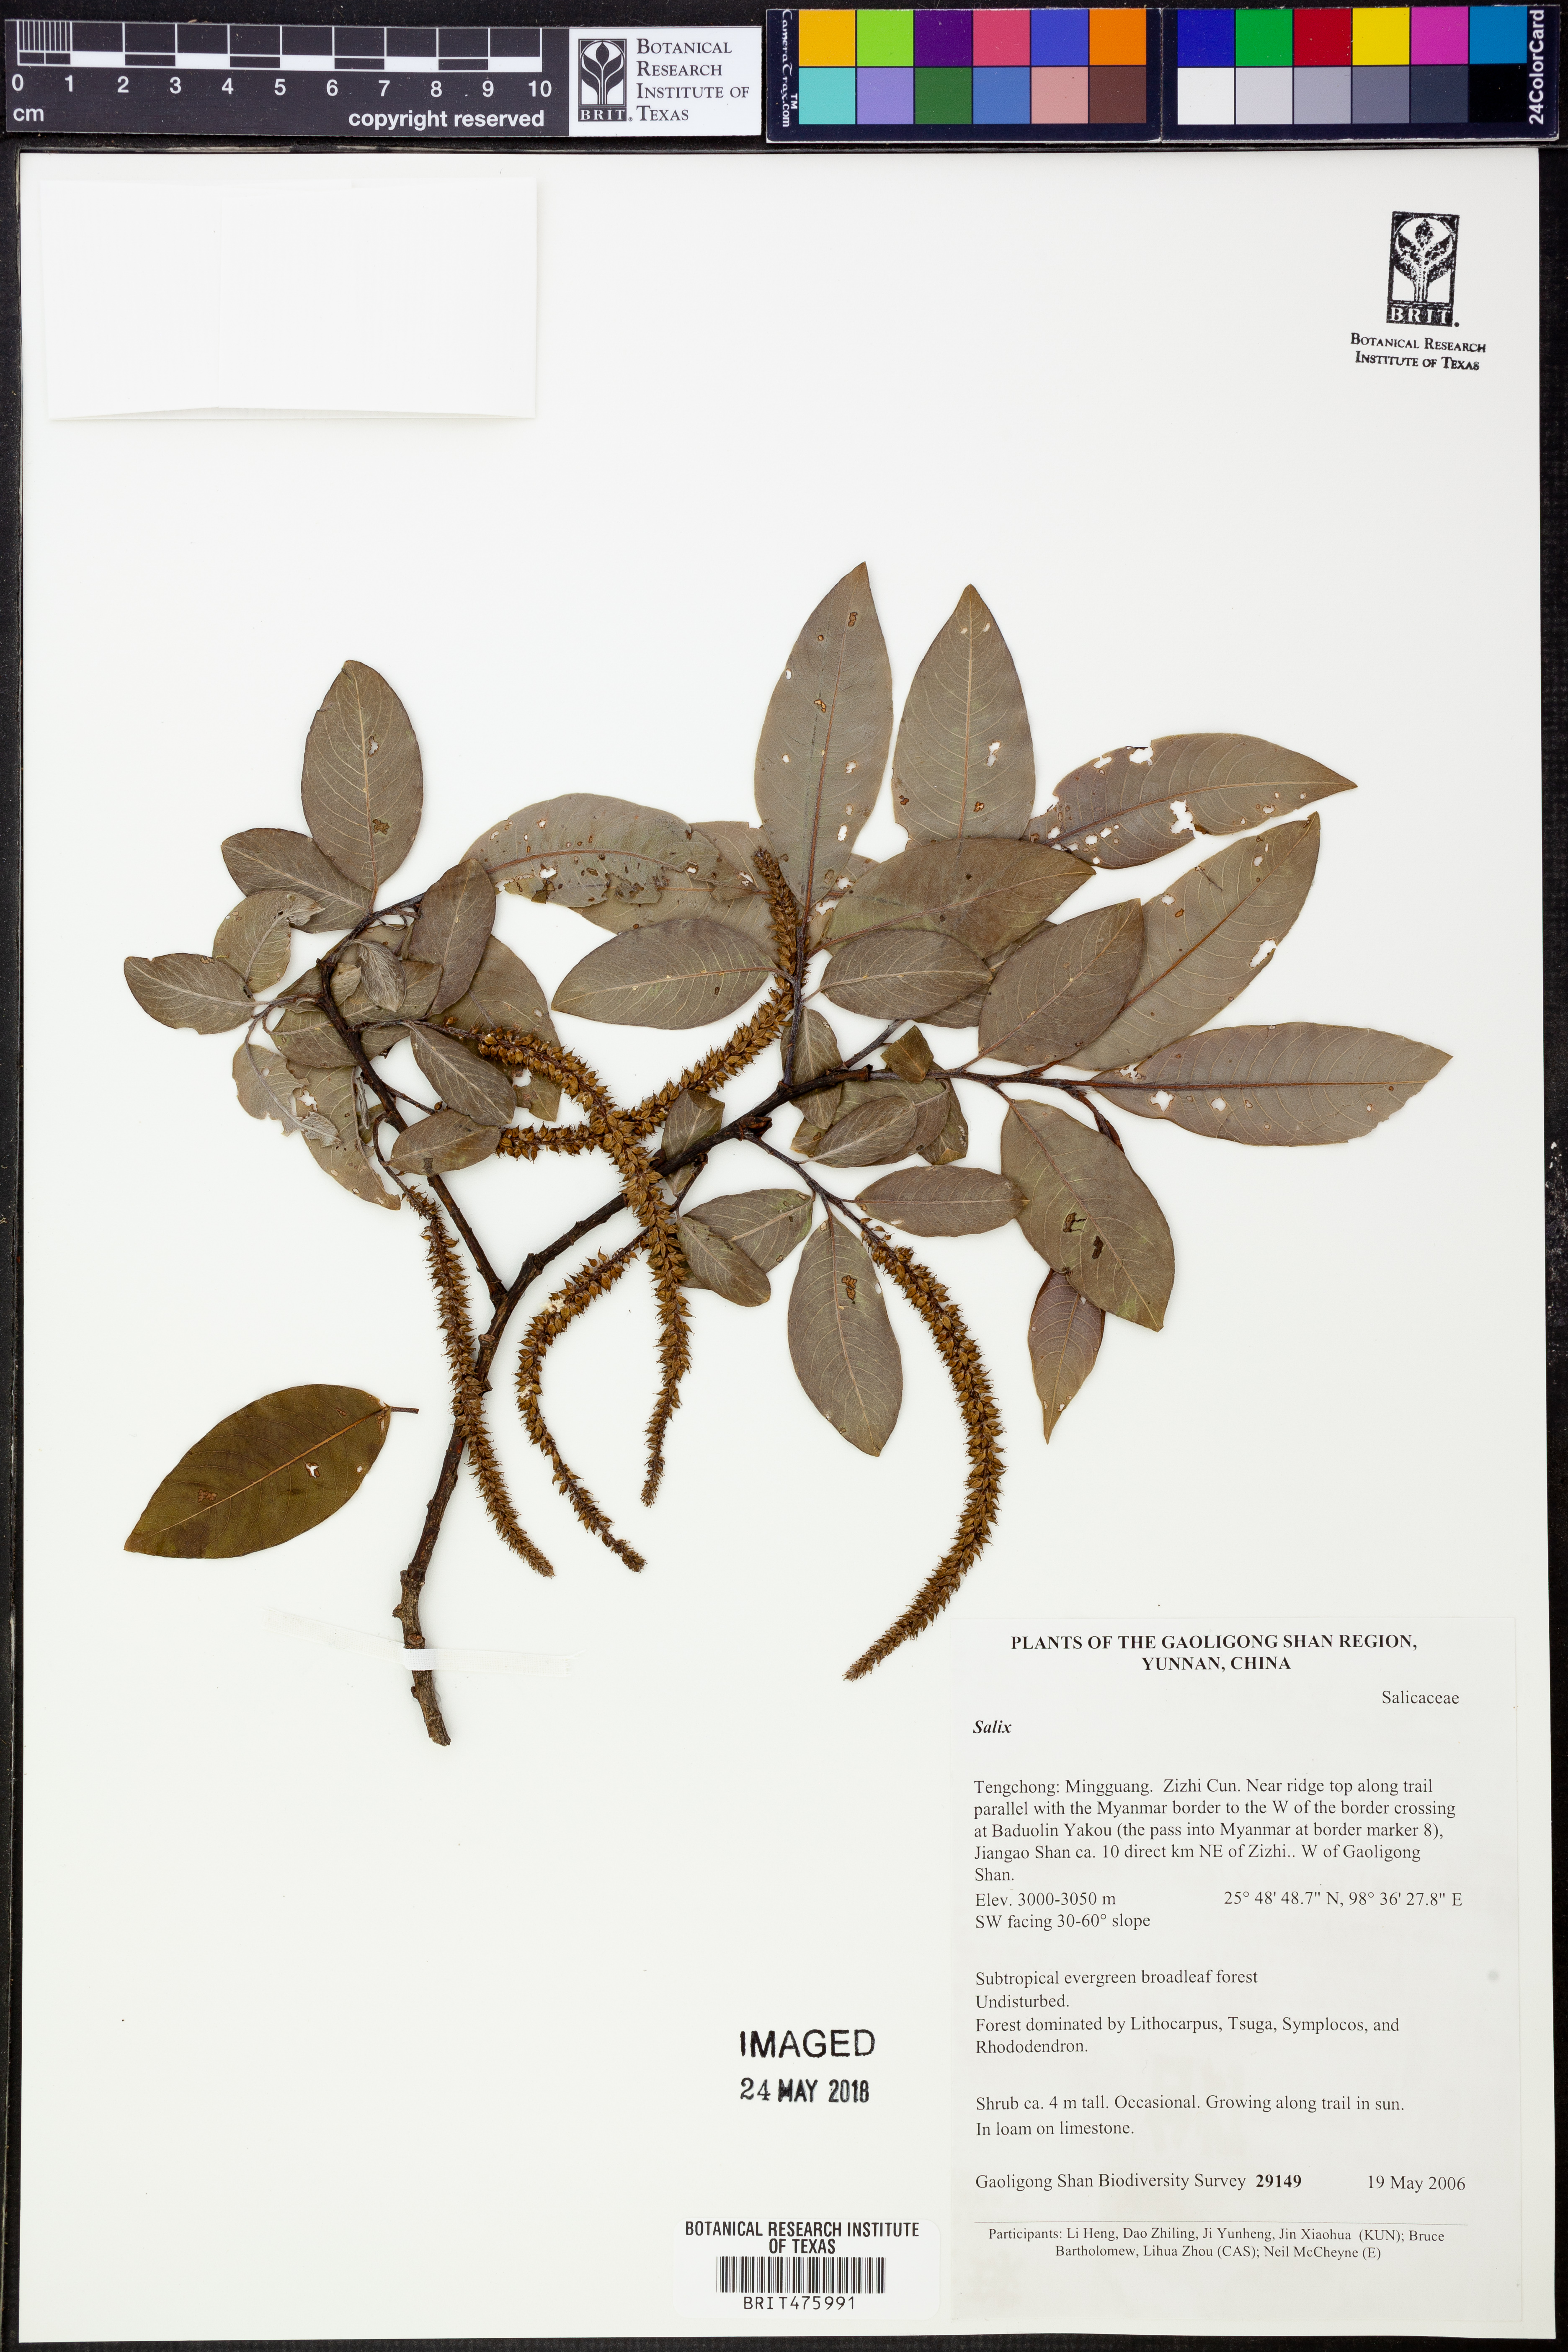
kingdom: Plantae
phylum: Tracheophyta
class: Magnoliopsida
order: Malpighiales
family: Salicaceae
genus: Salix
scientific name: Salix
